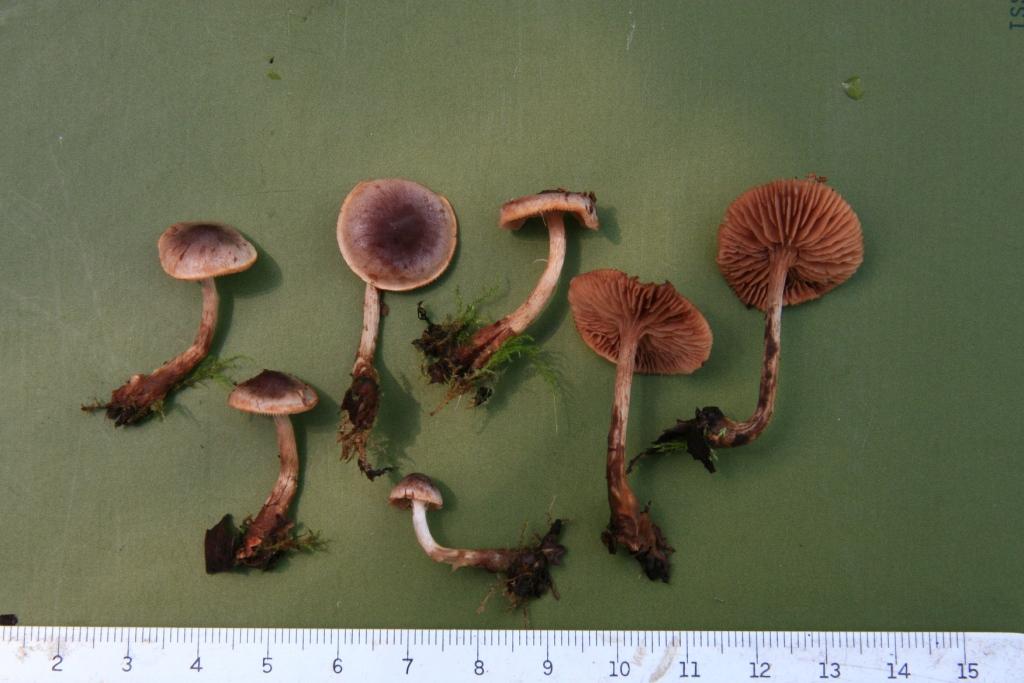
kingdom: Fungi
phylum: Basidiomycota
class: Agaricomycetes
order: Agaricales
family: Hymenogastraceae
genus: Hebeloma
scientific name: Hebeloma nigellum
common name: sortbrun tåreblad
